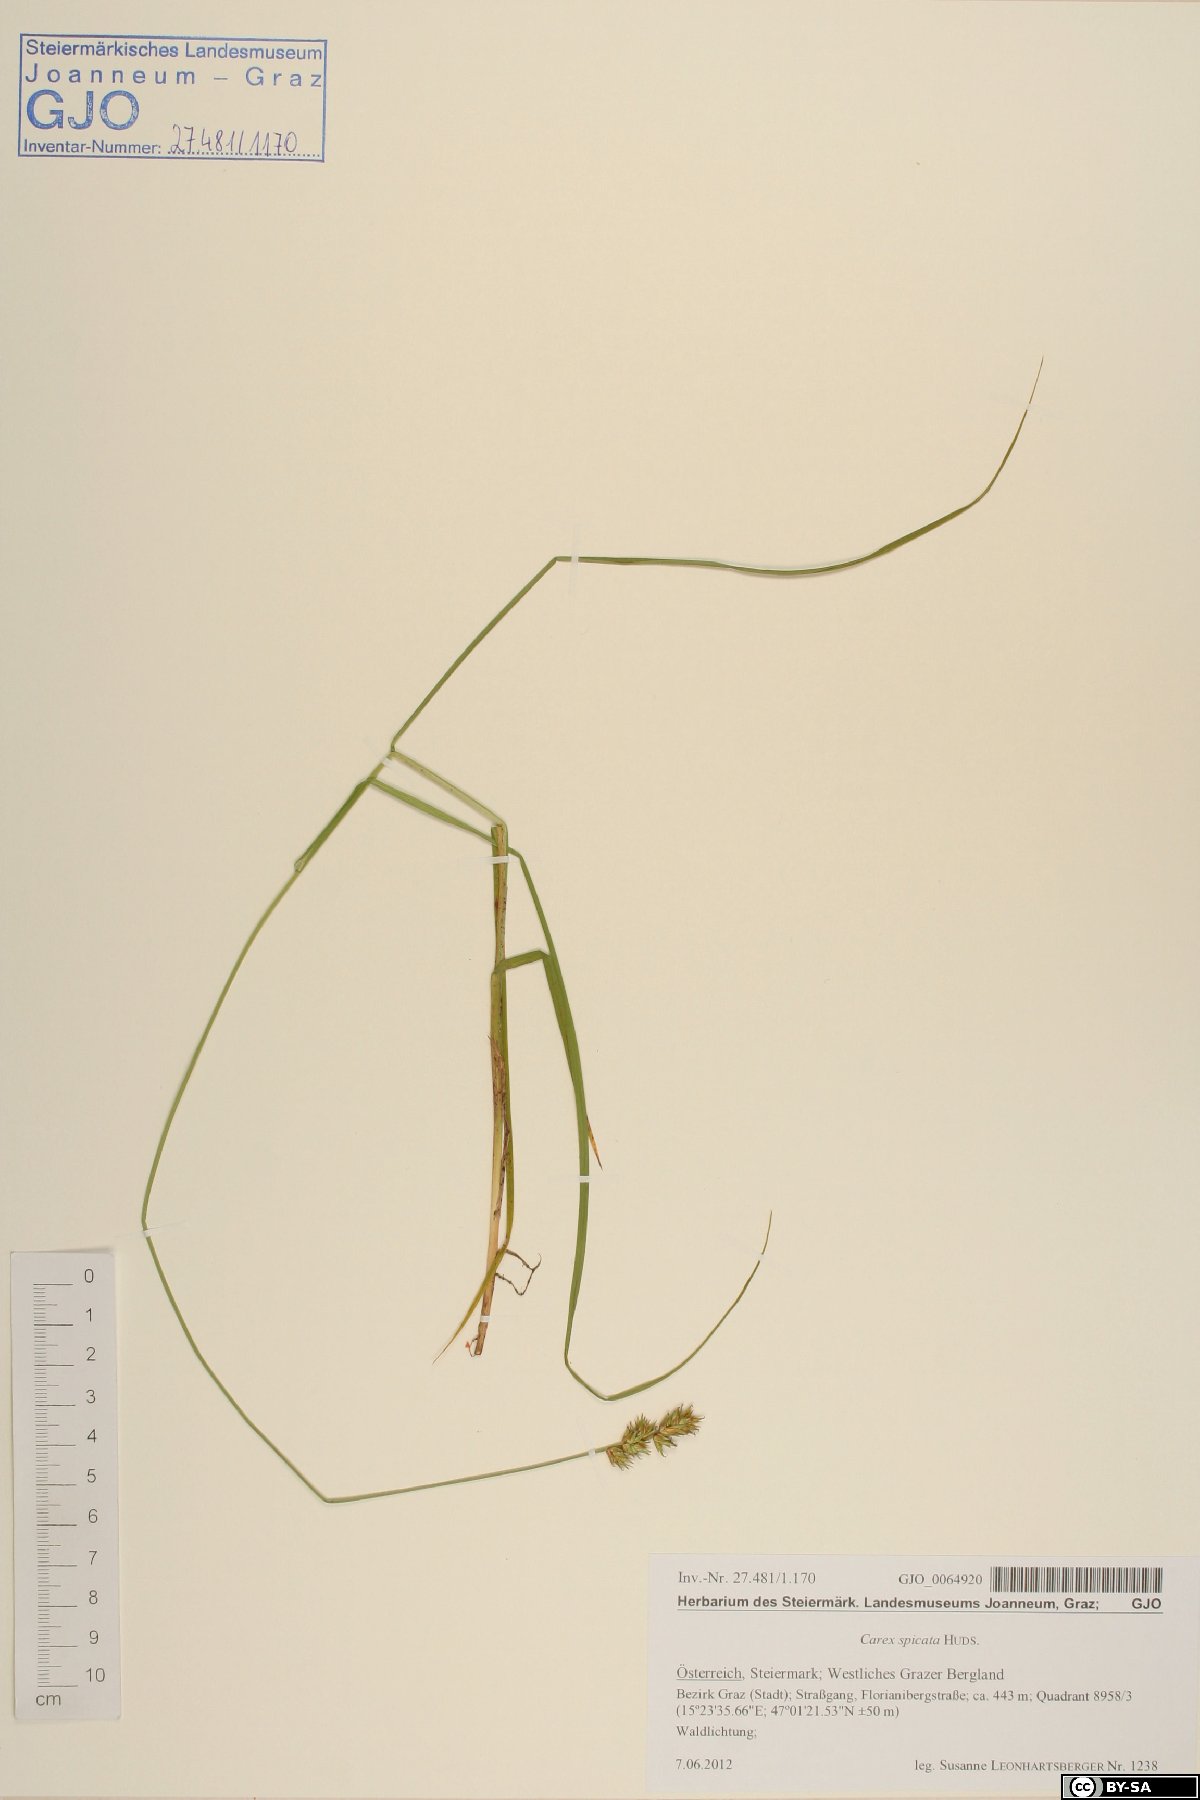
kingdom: Plantae
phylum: Tracheophyta
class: Liliopsida
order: Poales
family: Cyperaceae
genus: Carex
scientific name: Carex spicata
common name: Spiked sedge
